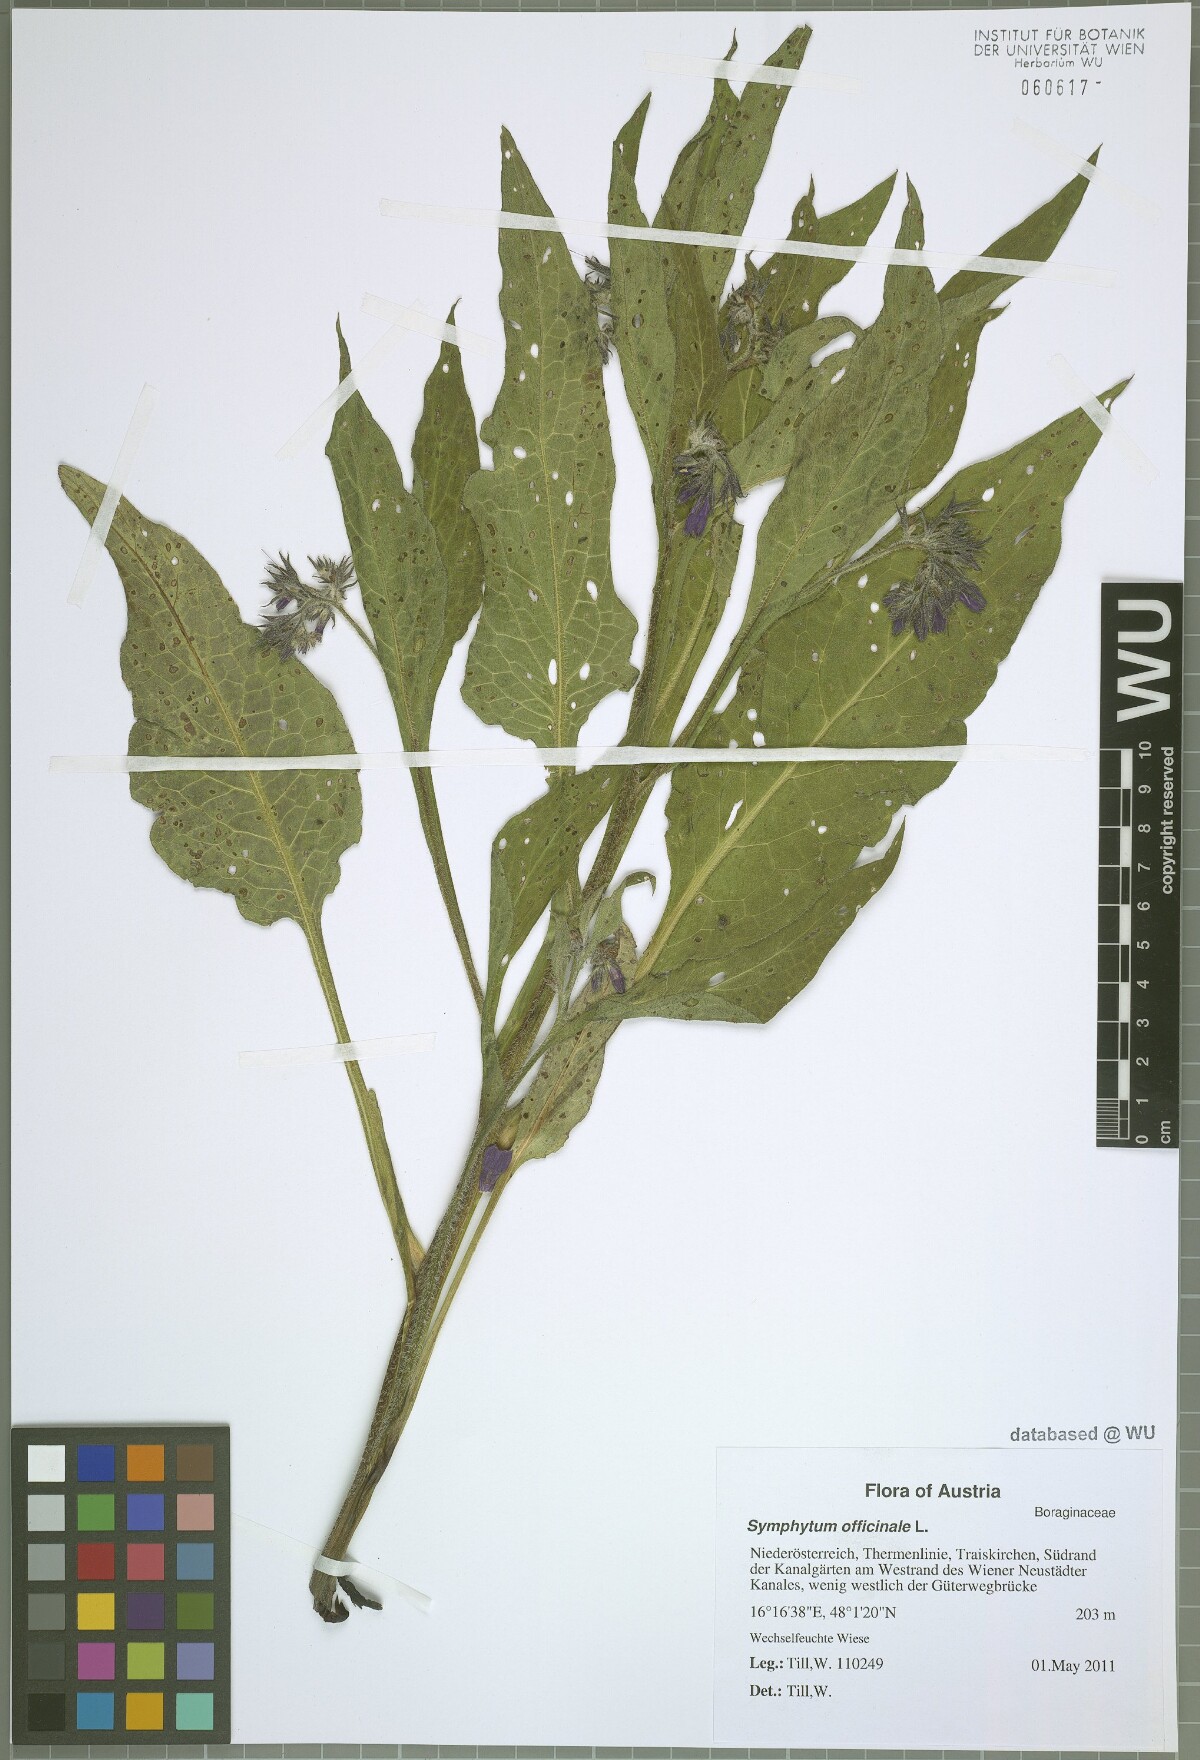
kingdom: Plantae
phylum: Tracheophyta
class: Magnoliopsida
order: Boraginales
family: Boraginaceae
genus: Symphytum
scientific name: Symphytum officinale
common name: Common comfrey
